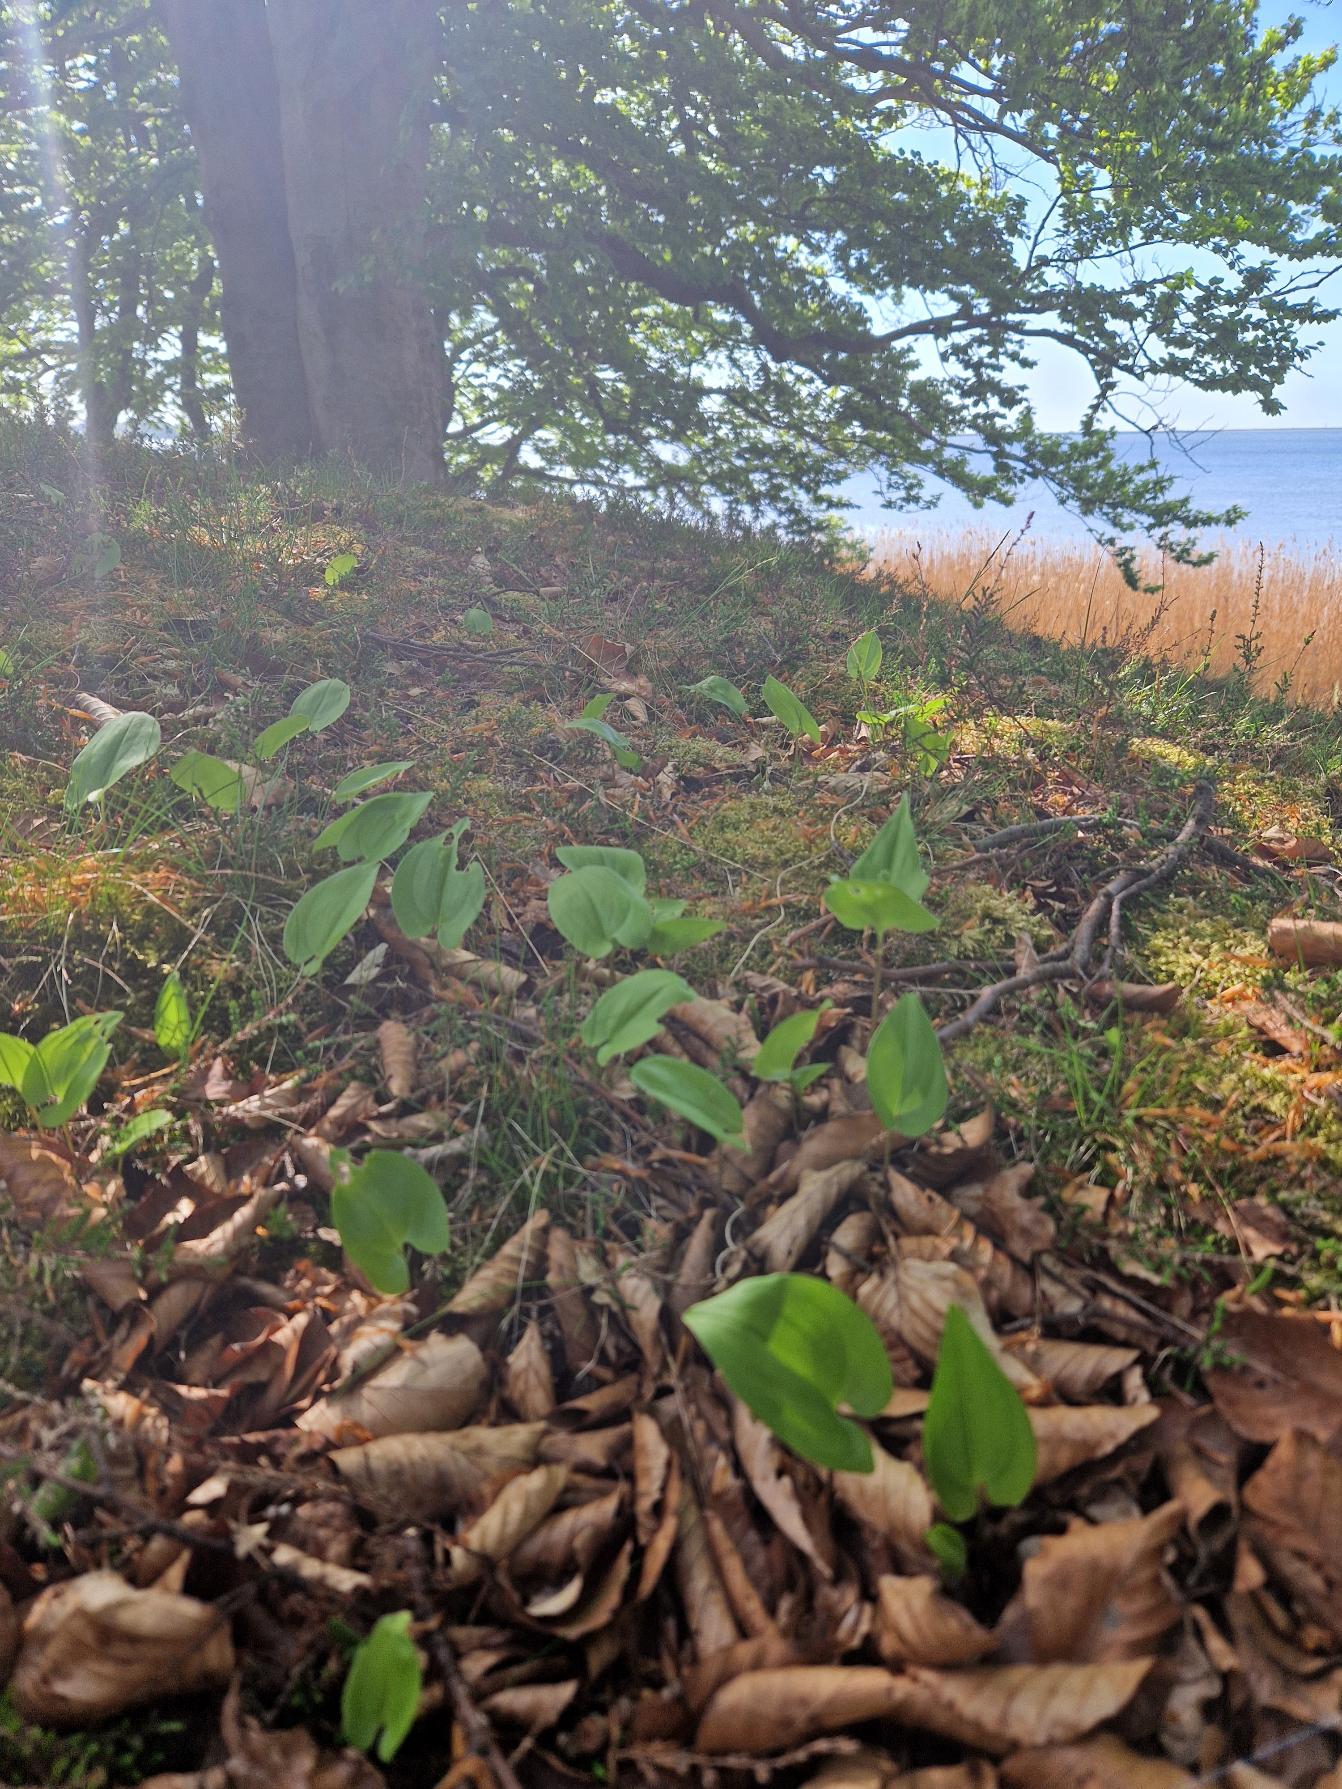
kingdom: Plantae
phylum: Tracheophyta
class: Liliopsida
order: Asparagales
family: Asparagaceae
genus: Maianthemum
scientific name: Maianthemum bifolium
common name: Majblomst
